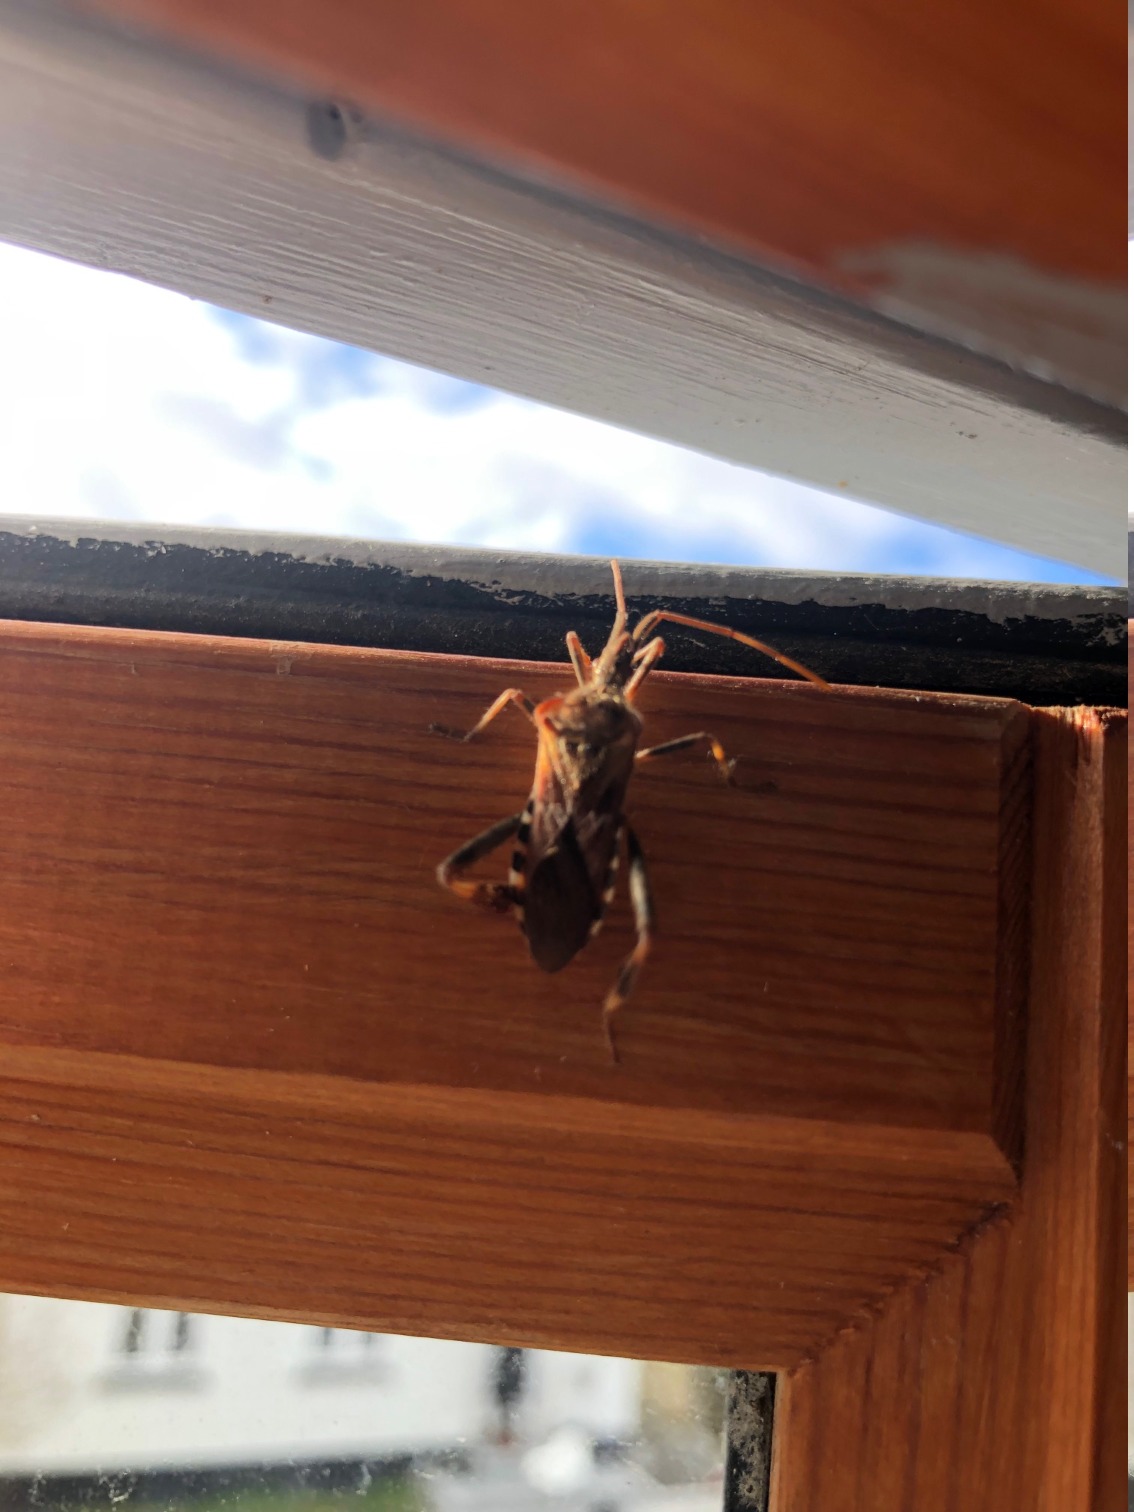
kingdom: Animalia
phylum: Arthropoda
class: Insecta
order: Hemiptera
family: Coreidae
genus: Leptoglossus
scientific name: Leptoglossus occidentalis
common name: Amerikansk fyrretæge
